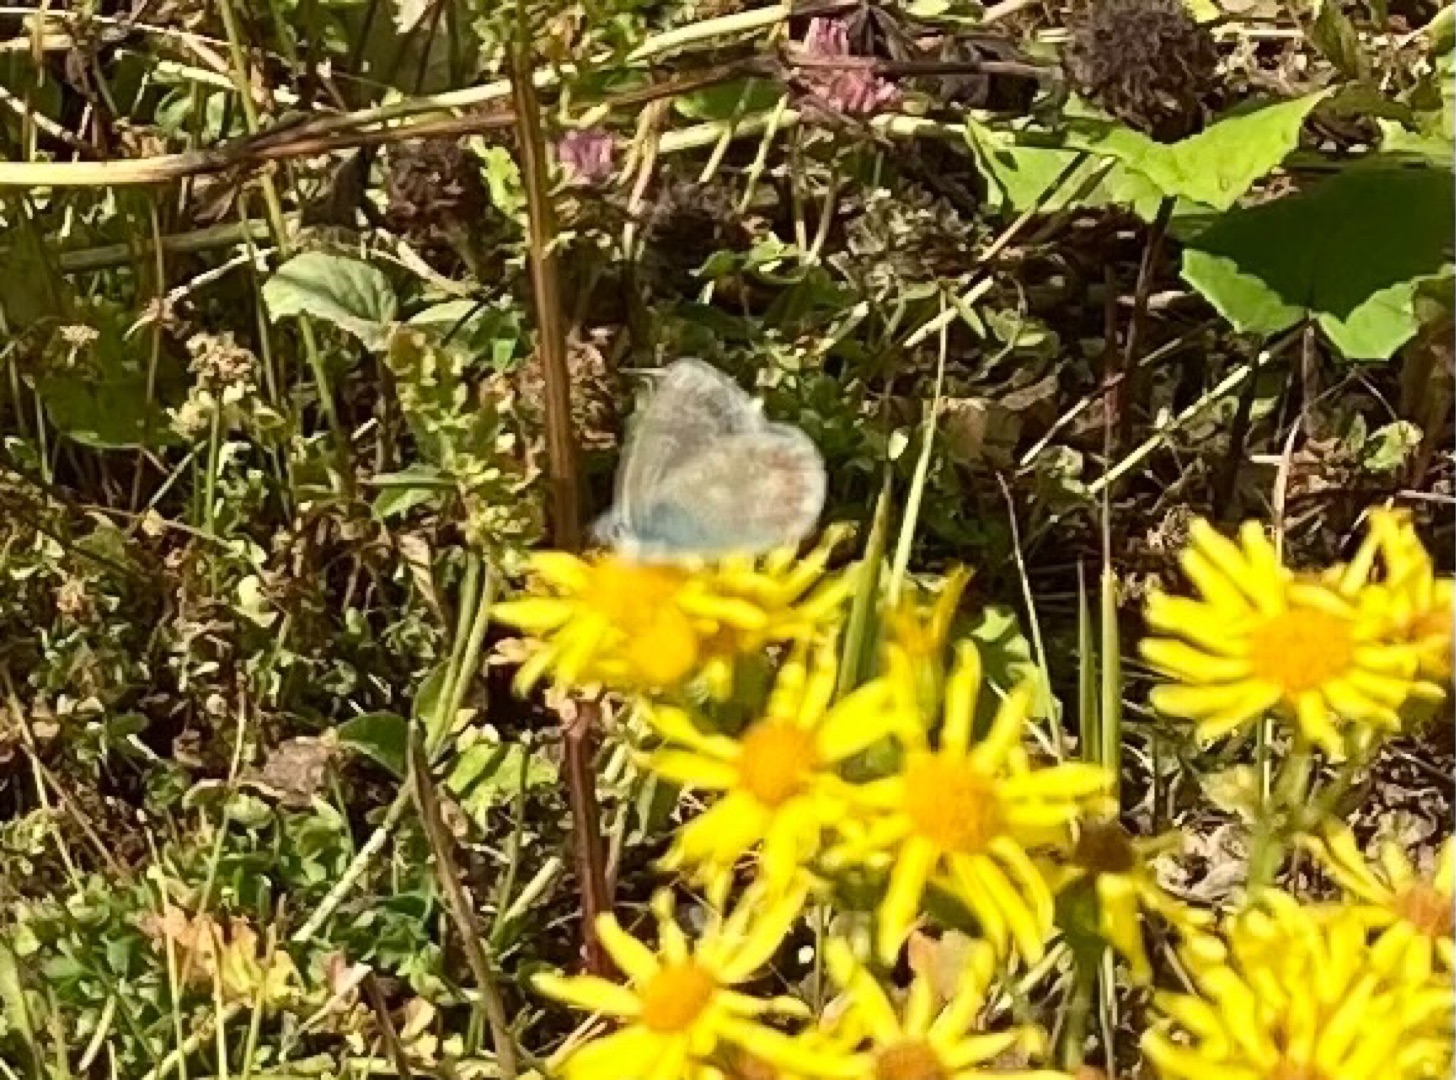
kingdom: Animalia
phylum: Arthropoda
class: Insecta
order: Lepidoptera
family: Lycaenidae
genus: Polyommatus
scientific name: Polyommatus icarus
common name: Almindelig blåfugl
